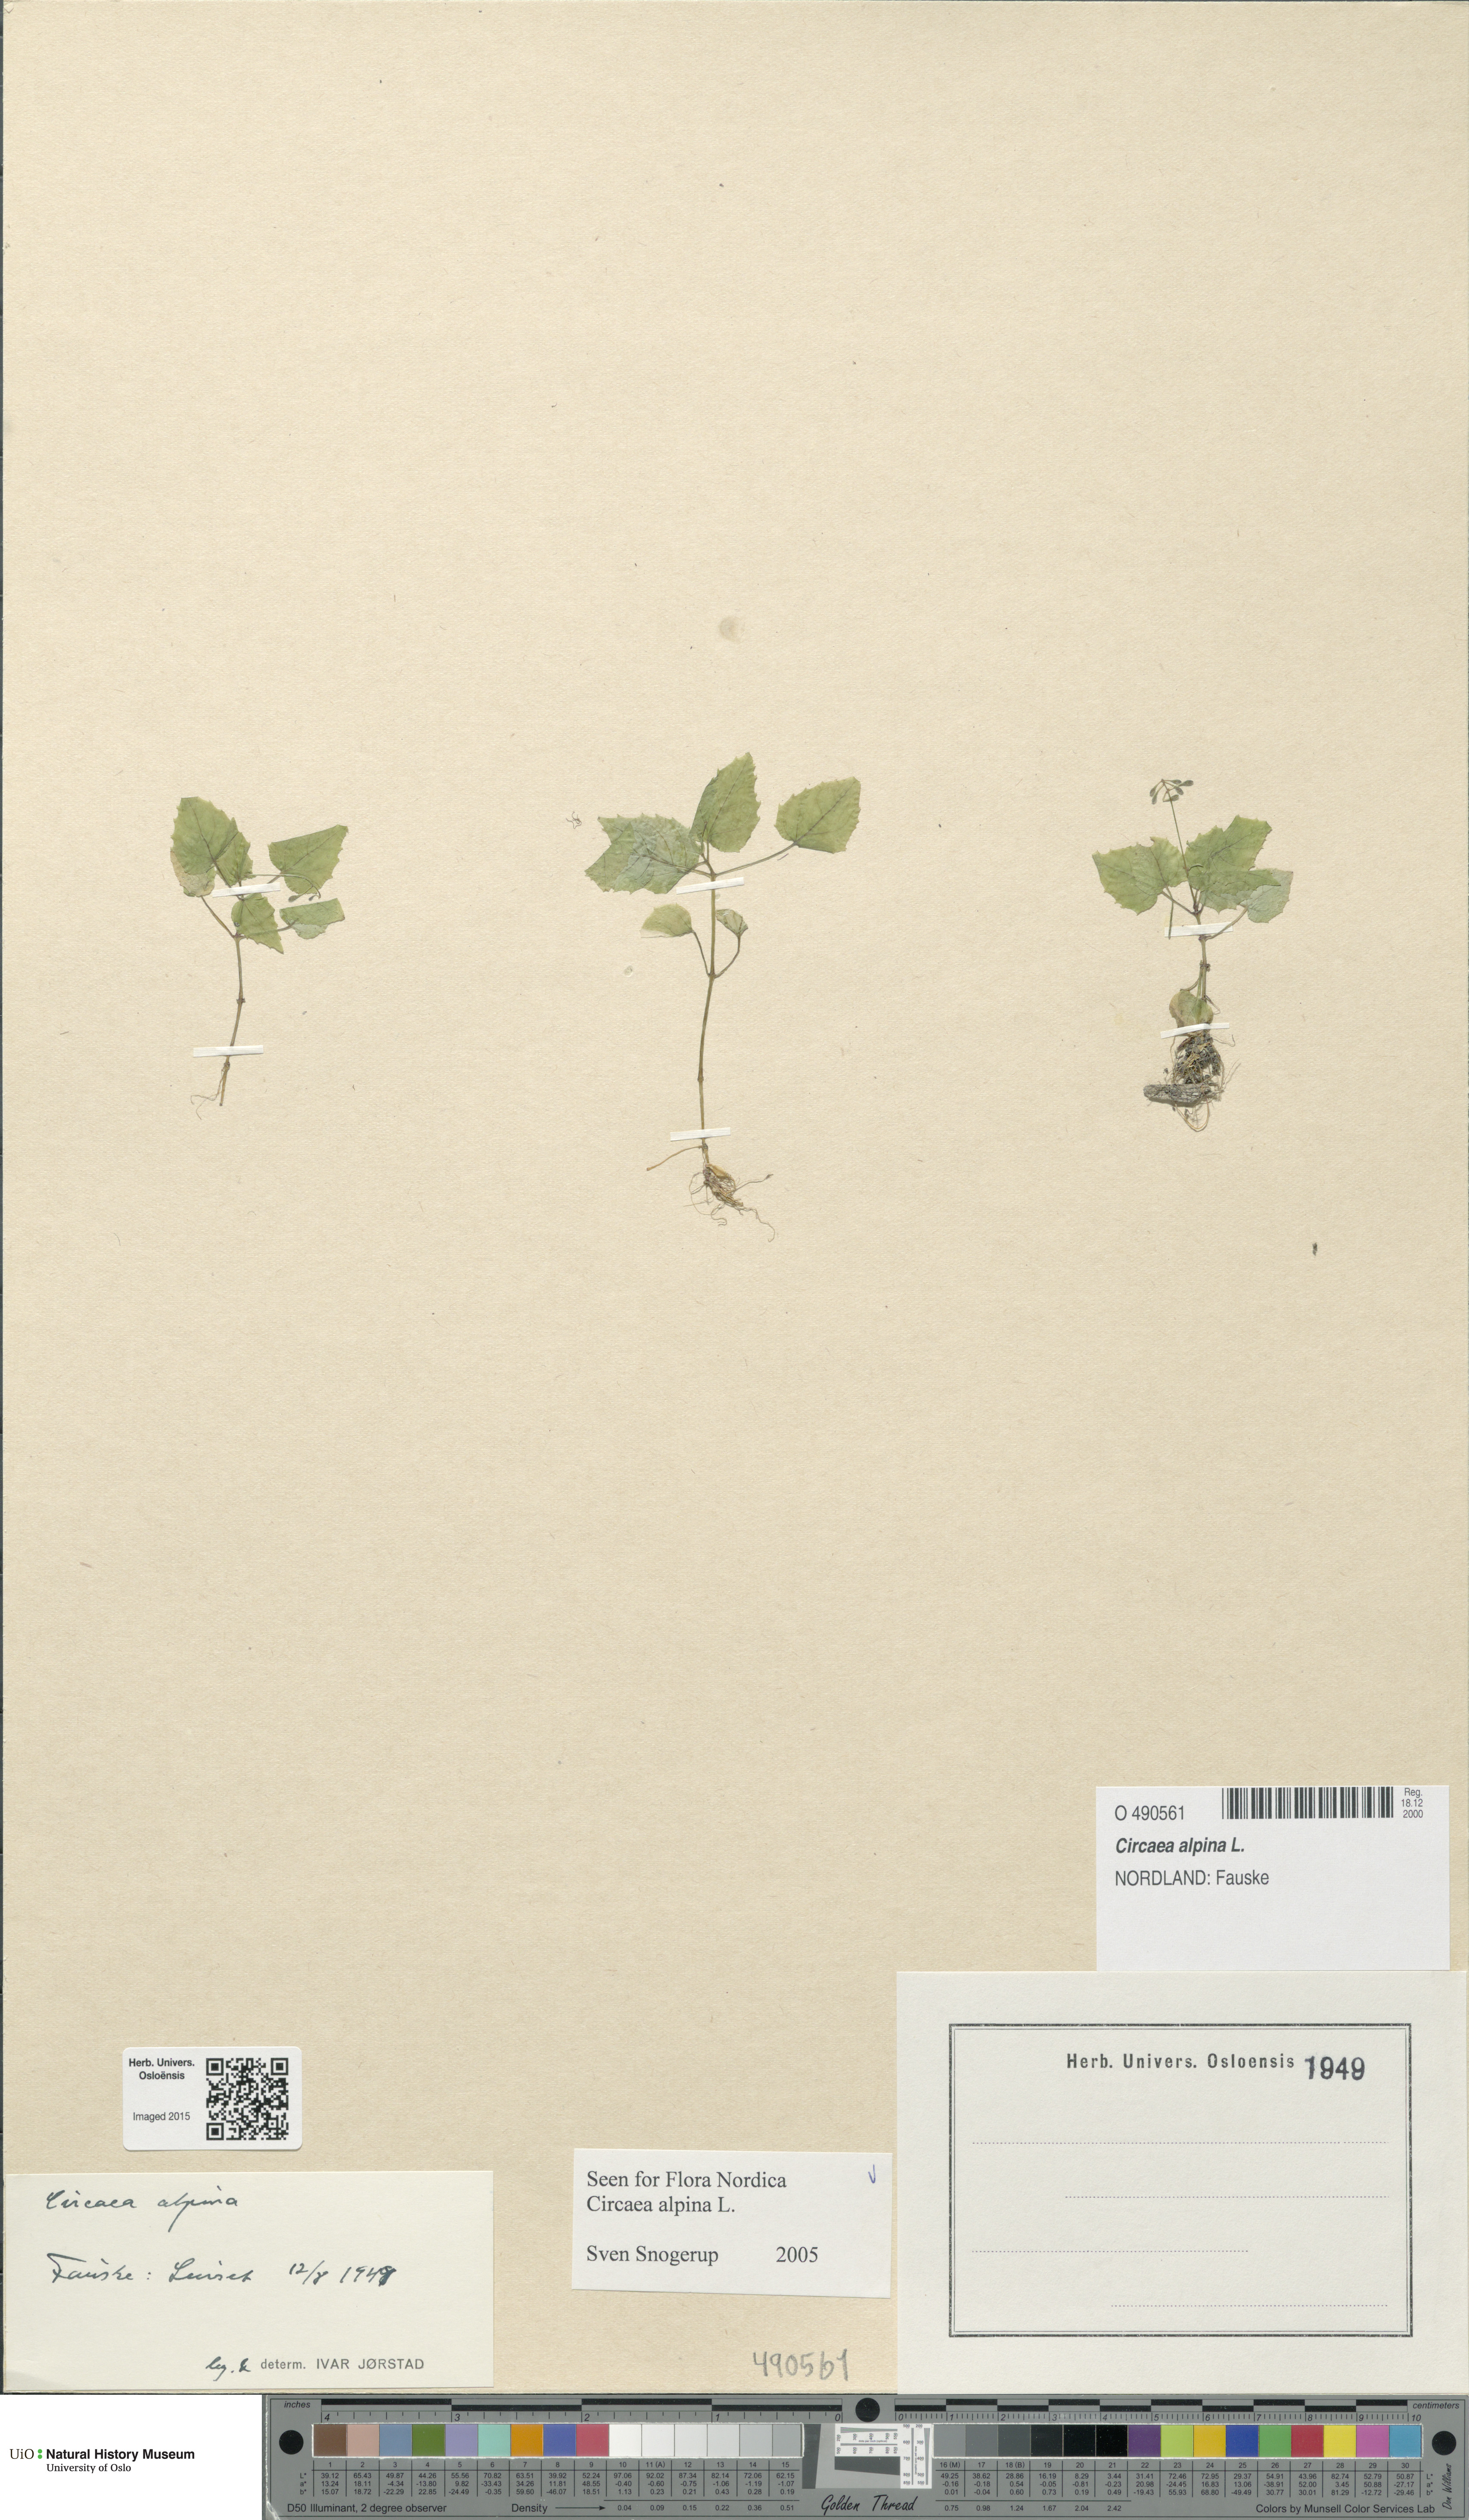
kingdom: Plantae
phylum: Tracheophyta
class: Magnoliopsida
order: Myrtales
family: Onagraceae
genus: Circaea
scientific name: Circaea alpina
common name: Alpine enchanter's-nightshade
